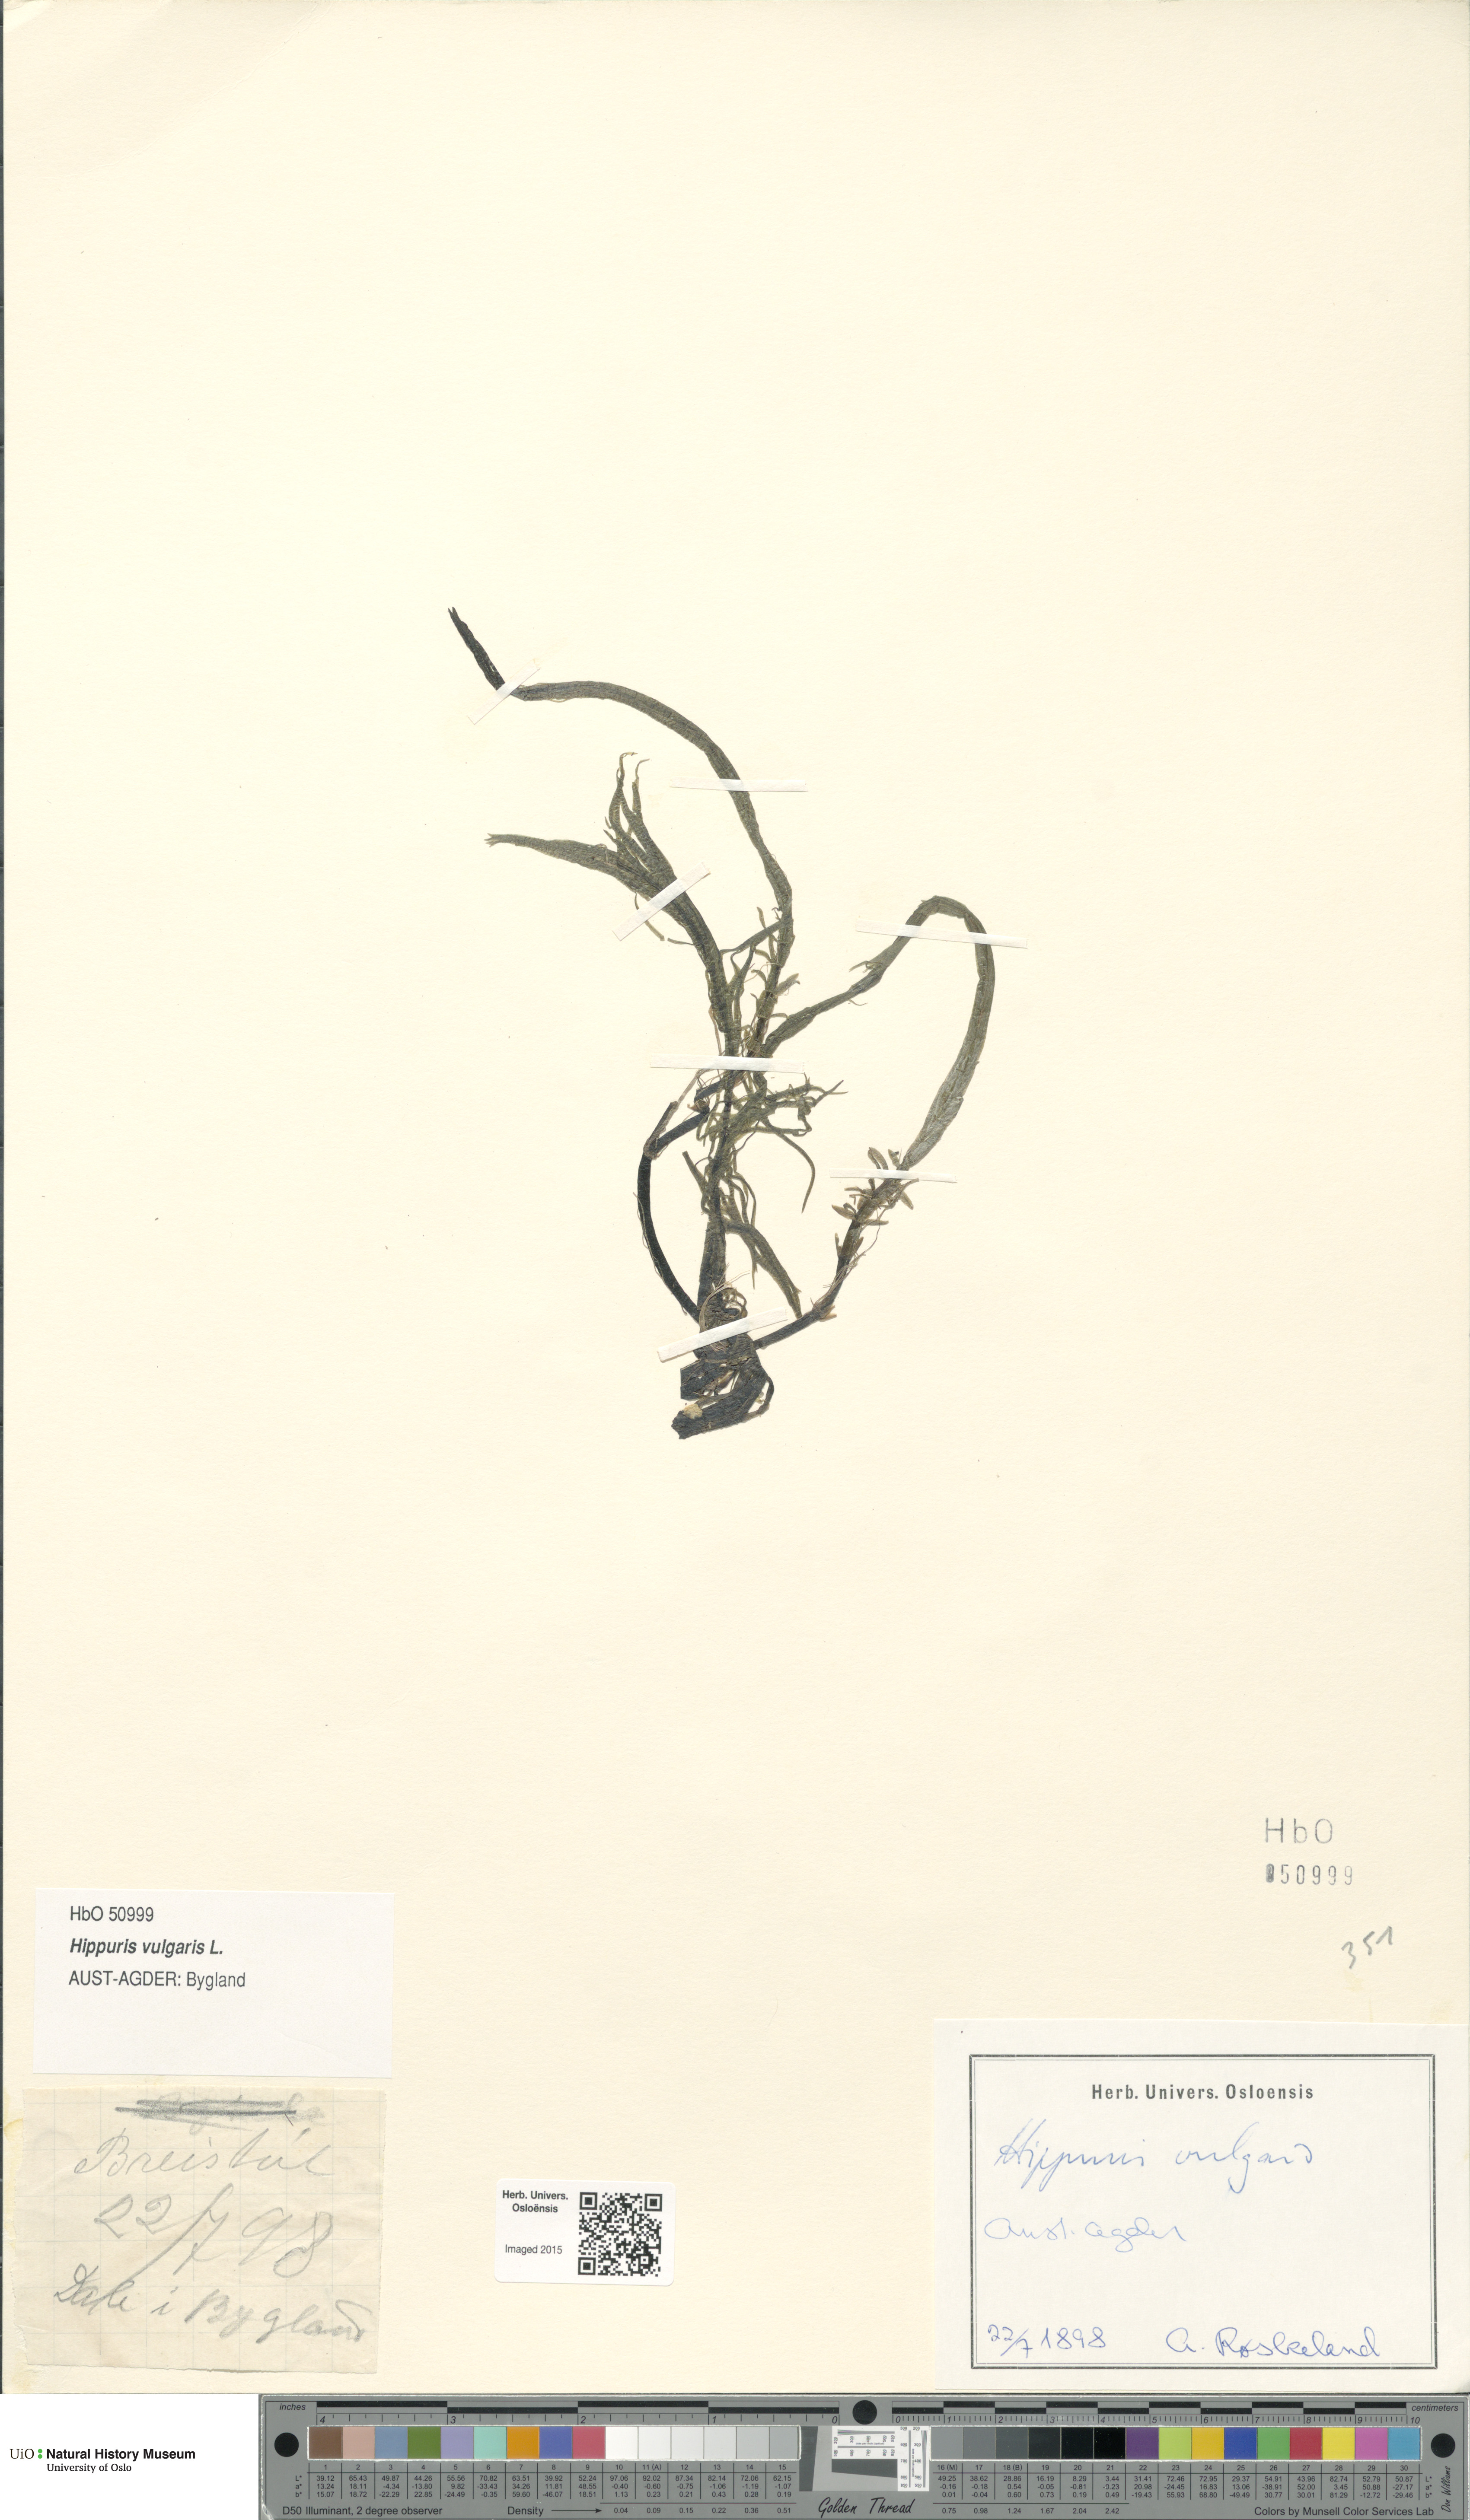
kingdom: Plantae
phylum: Tracheophyta
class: Magnoliopsida
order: Lamiales
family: Plantaginaceae
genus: Hippuris
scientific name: Hippuris vulgaris
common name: Mare's-tail
